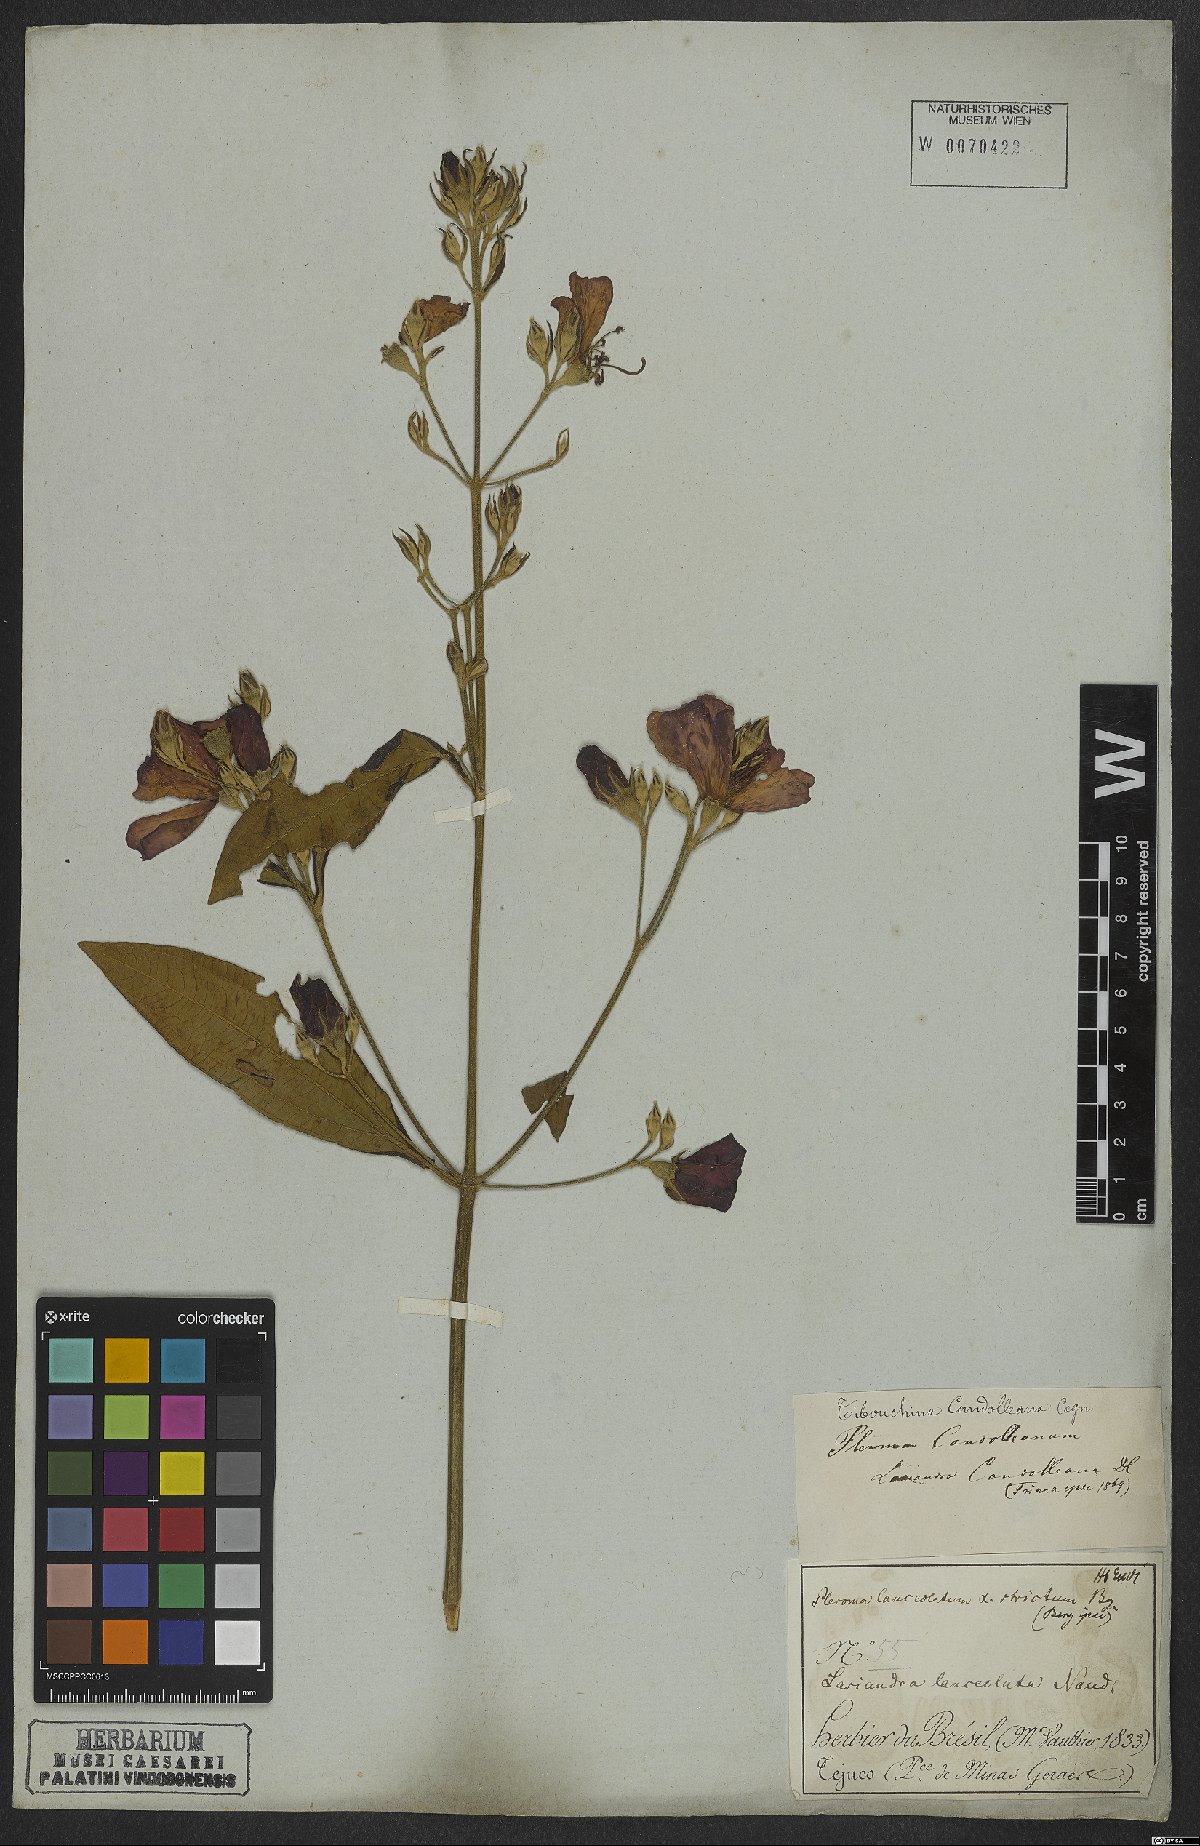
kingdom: Plantae
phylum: Tracheophyta
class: Magnoliopsida
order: Myrtales
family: Melastomataceae
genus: Pleroma
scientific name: Pleroma candolleanum
